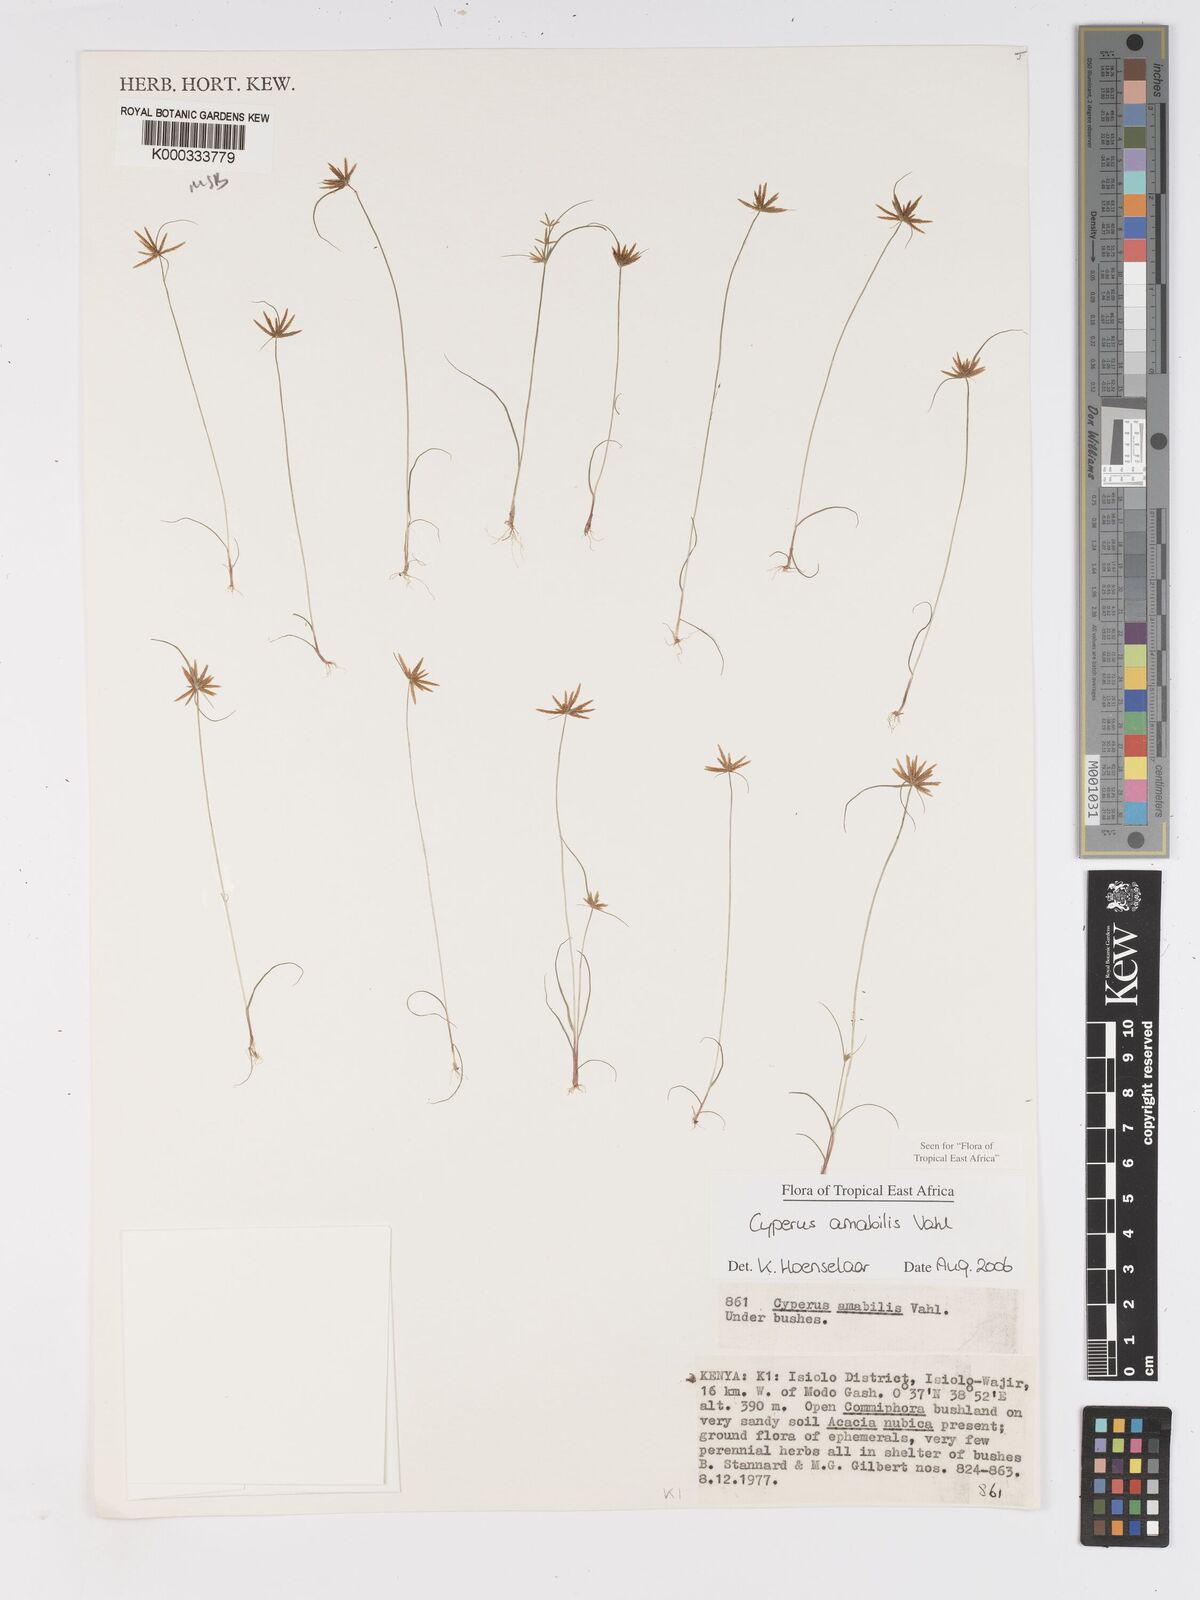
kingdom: Plantae
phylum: Tracheophyta
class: Liliopsida
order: Poales
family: Cyperaceae
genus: Cyperus
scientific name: Cyperus amabilis
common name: Foothill flat sedge
